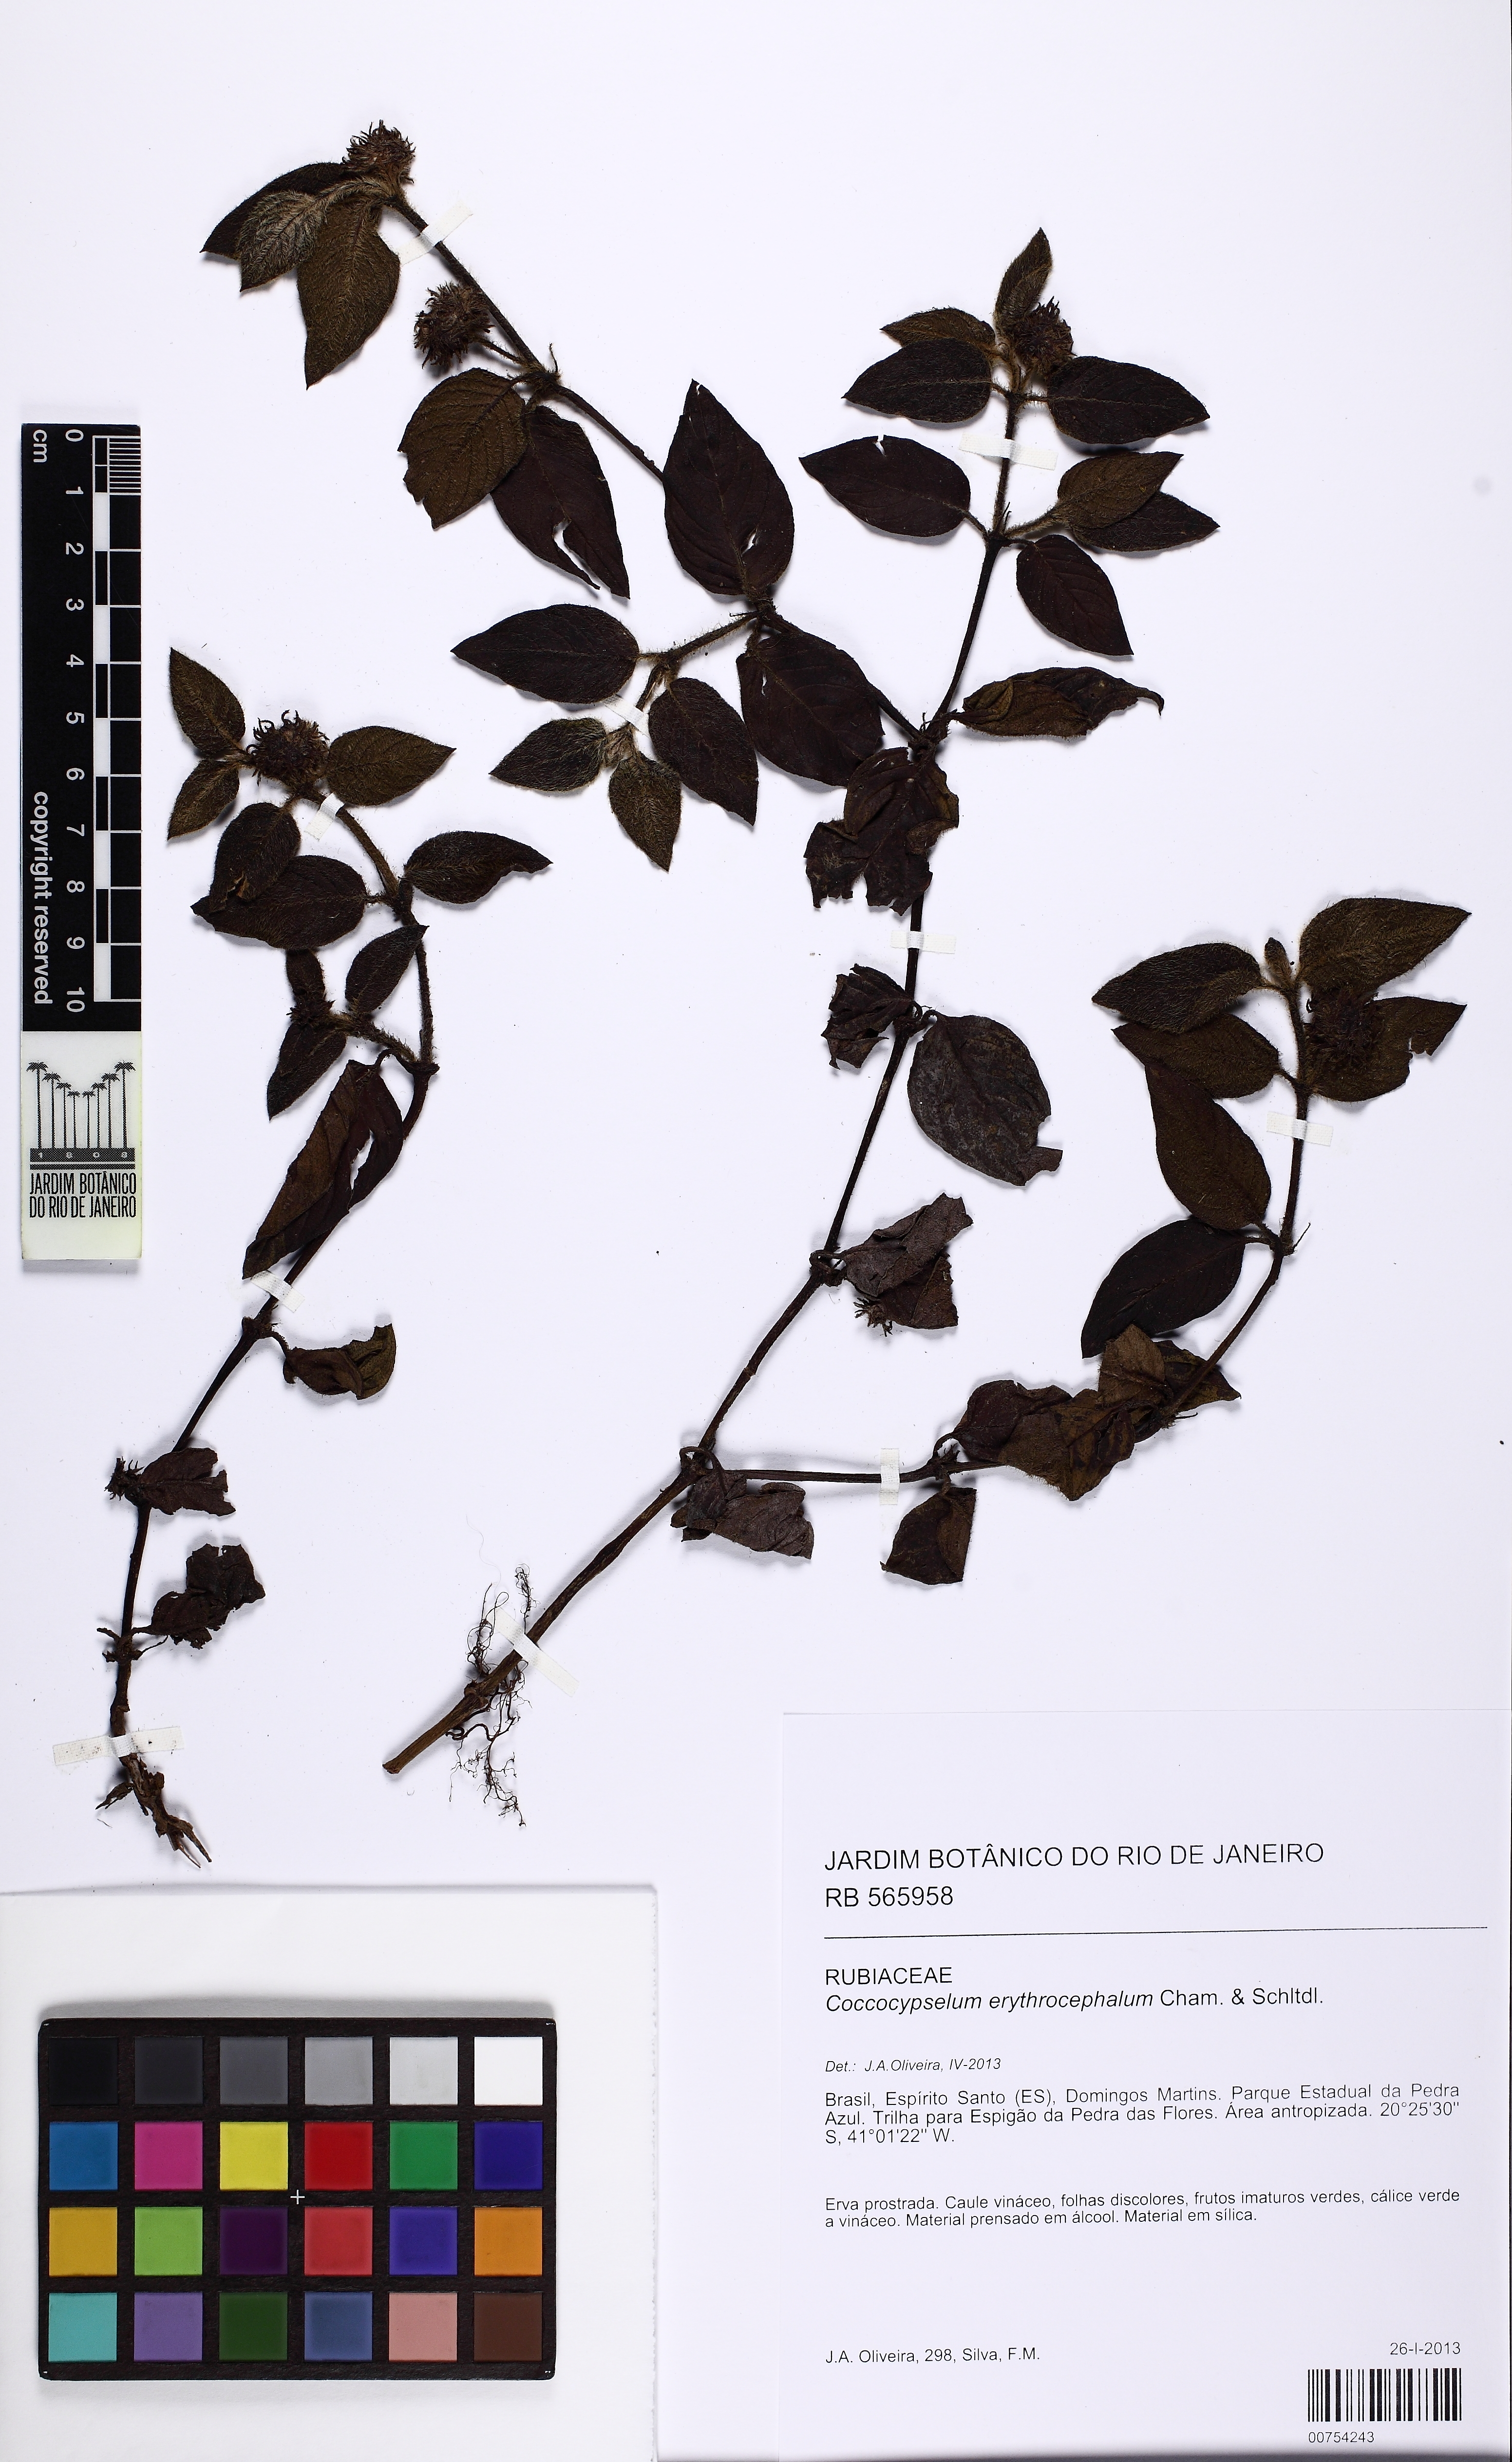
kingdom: Plantae
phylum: Tracheophyta
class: Magnoliopsida
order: Gentianales
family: Rubiaceae
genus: Coccocypselum
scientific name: Coccocypselum erythrocephalum
